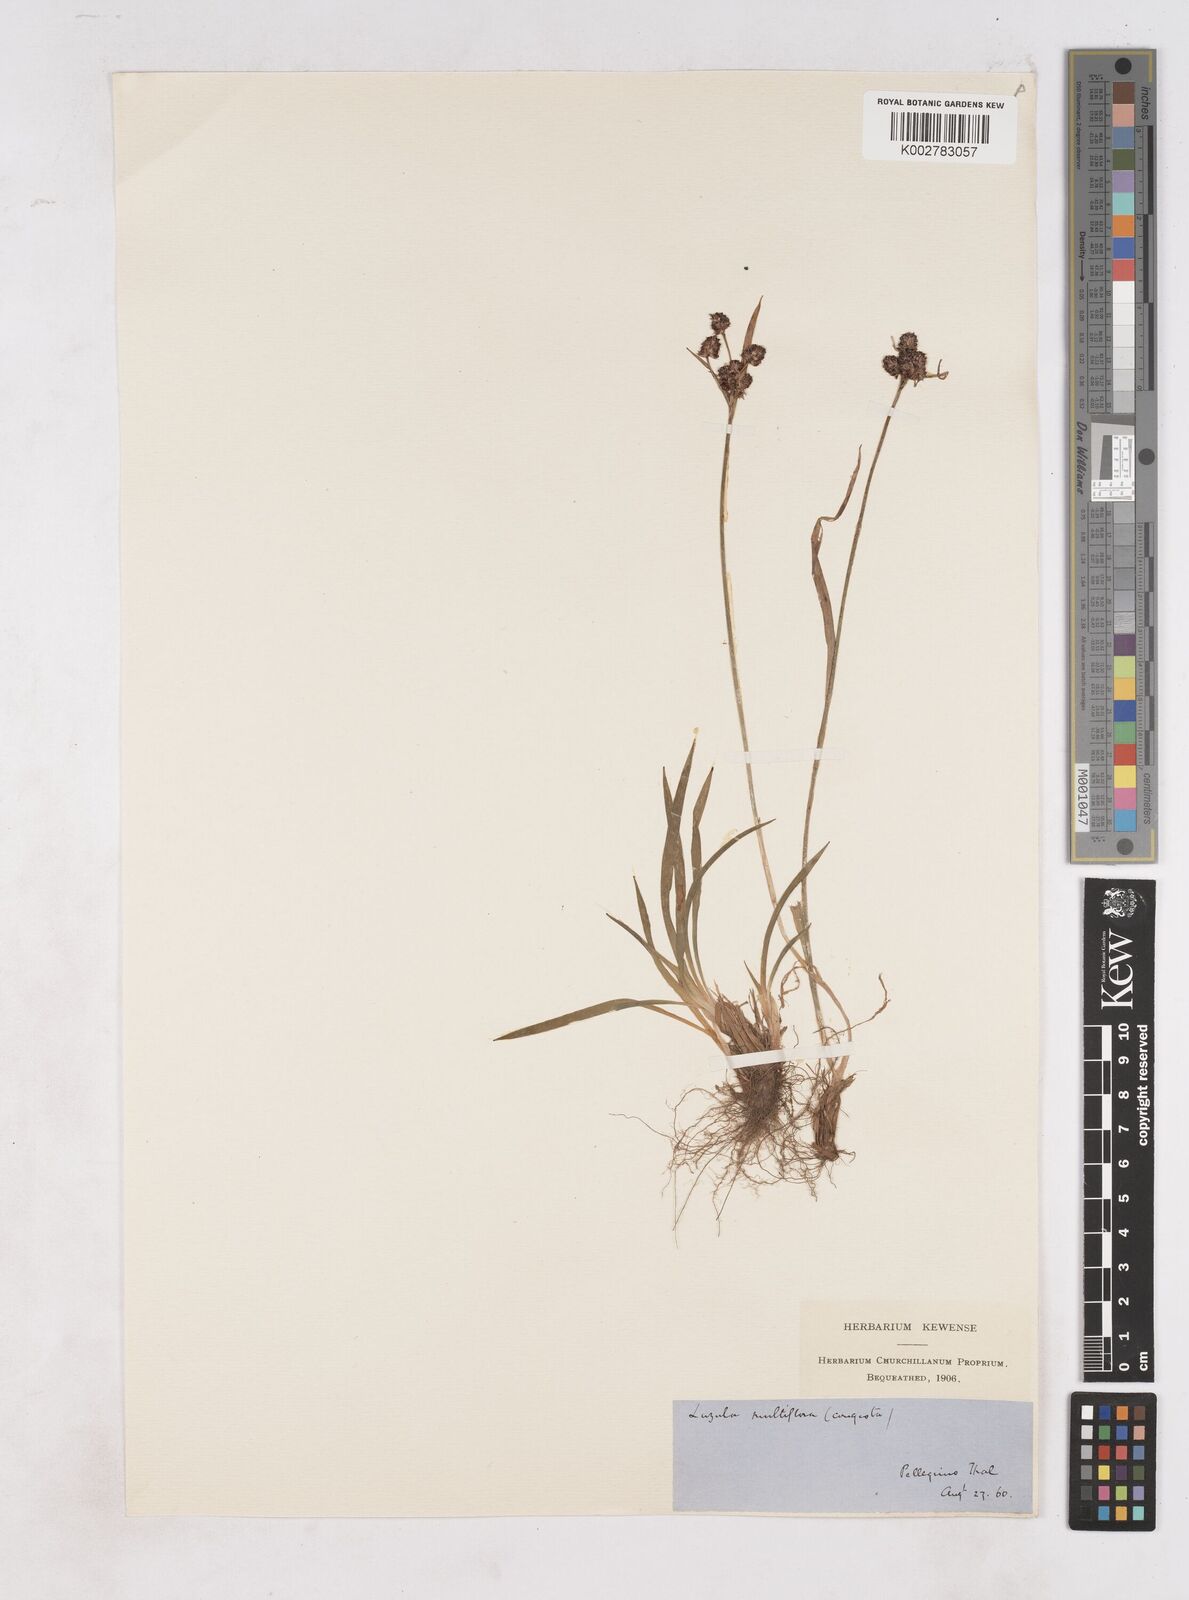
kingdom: Plantae
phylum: Tracheophyta
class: Liliopsida
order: Poales
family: Juncaceae
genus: Luzula
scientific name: Luzula campestris
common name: Field wood-rush
